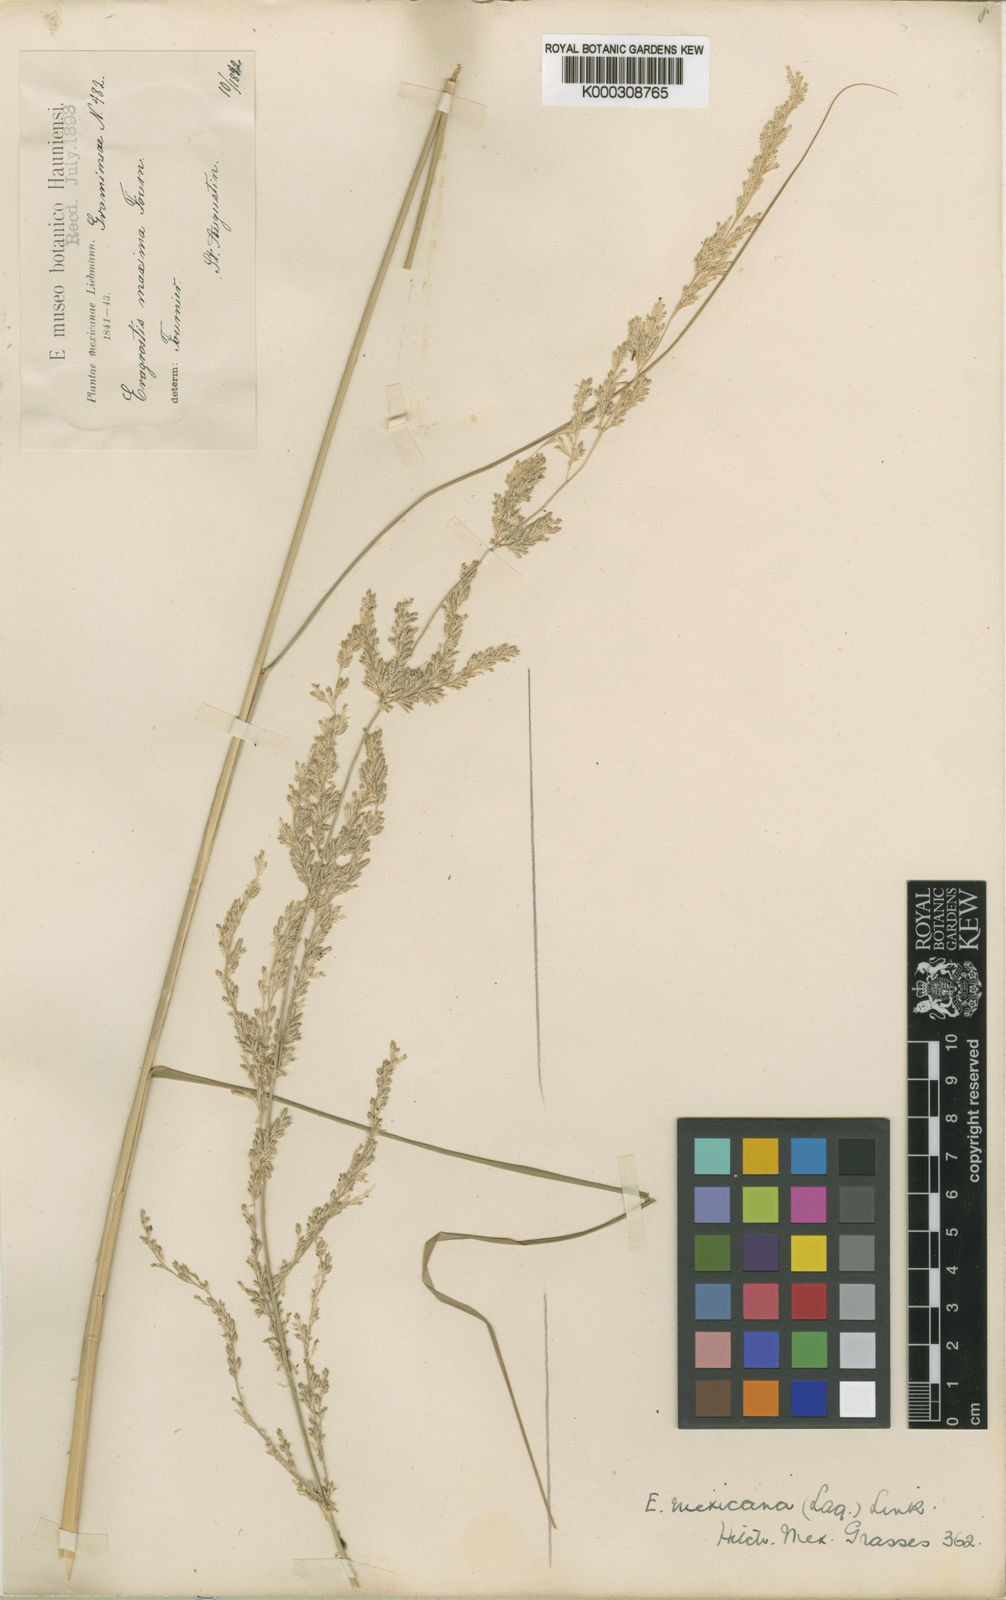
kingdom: Plantae
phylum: Tracheophyta
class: Liliopsida
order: Poales
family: Poaceae
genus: Eragrostis
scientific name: Eragrostis prolifera
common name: Dominican lovegrass
